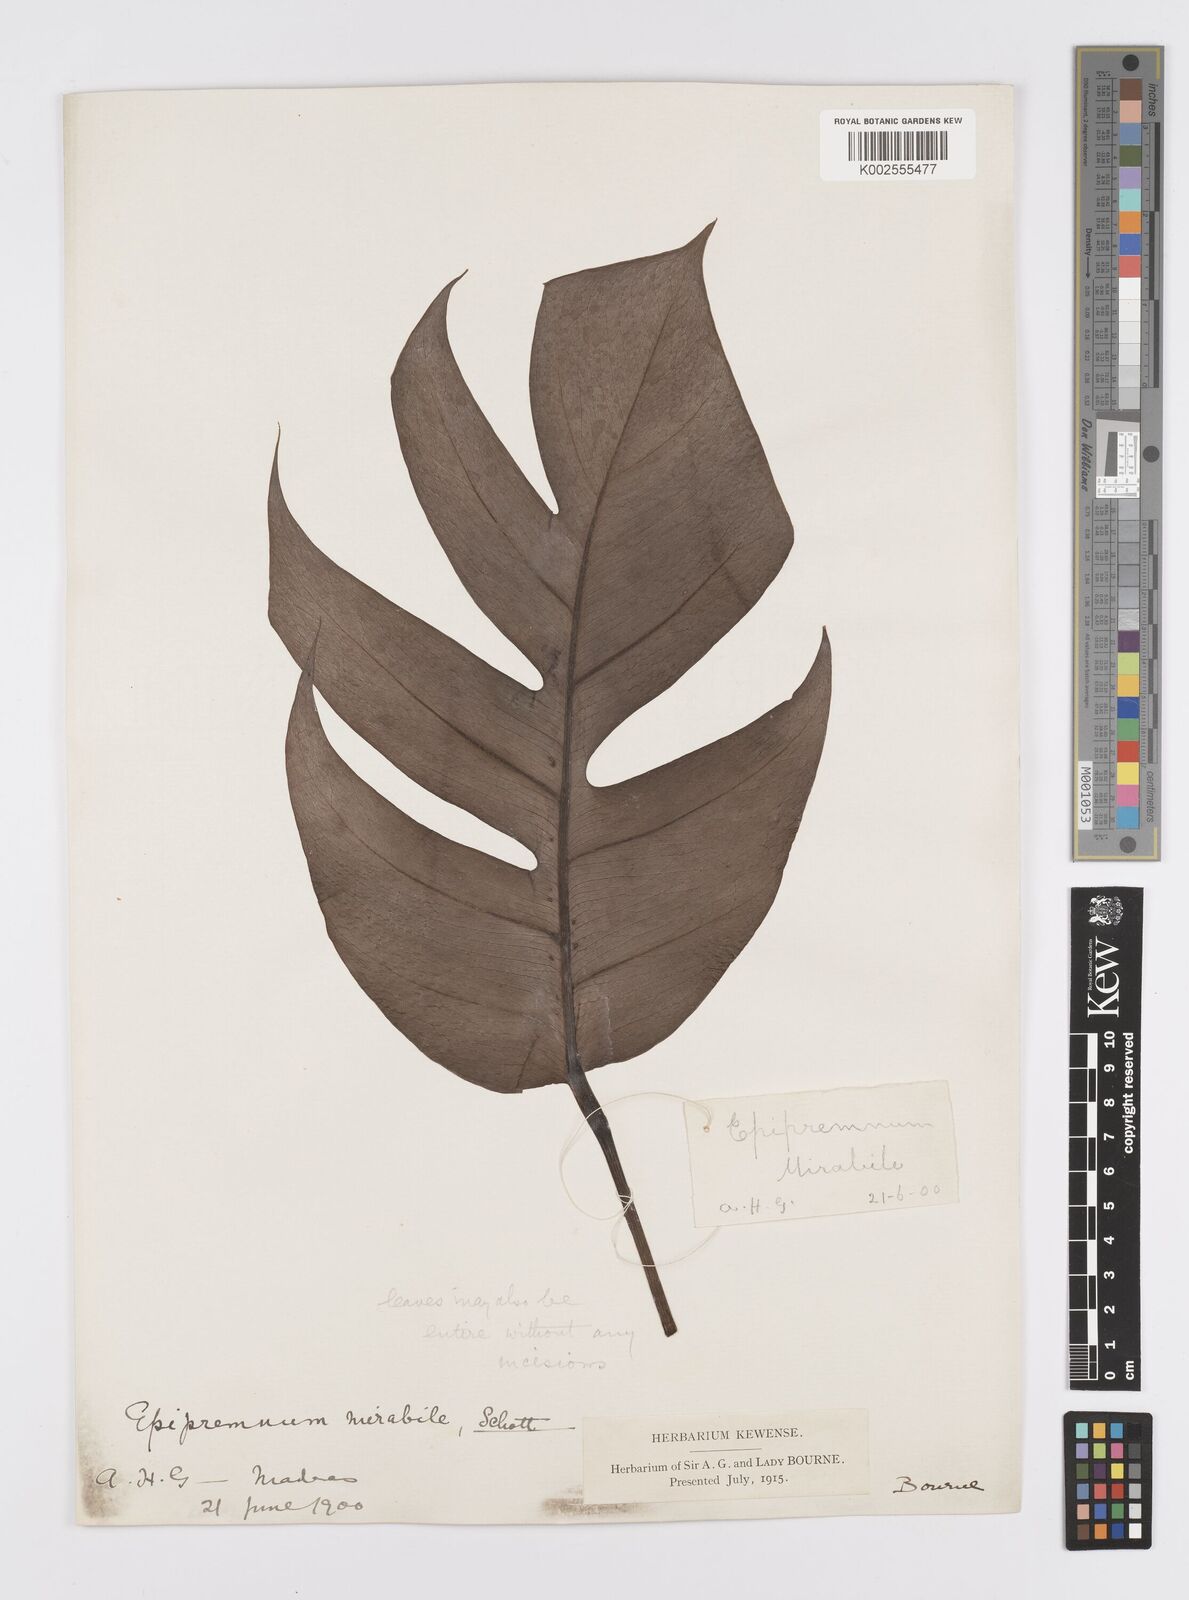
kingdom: Plantae
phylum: Tracheophyta
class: Liliopsida
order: Alismatales
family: Araceae
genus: Epipremnum
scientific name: Epipremnum pinnatum
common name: Centipede tongavine
